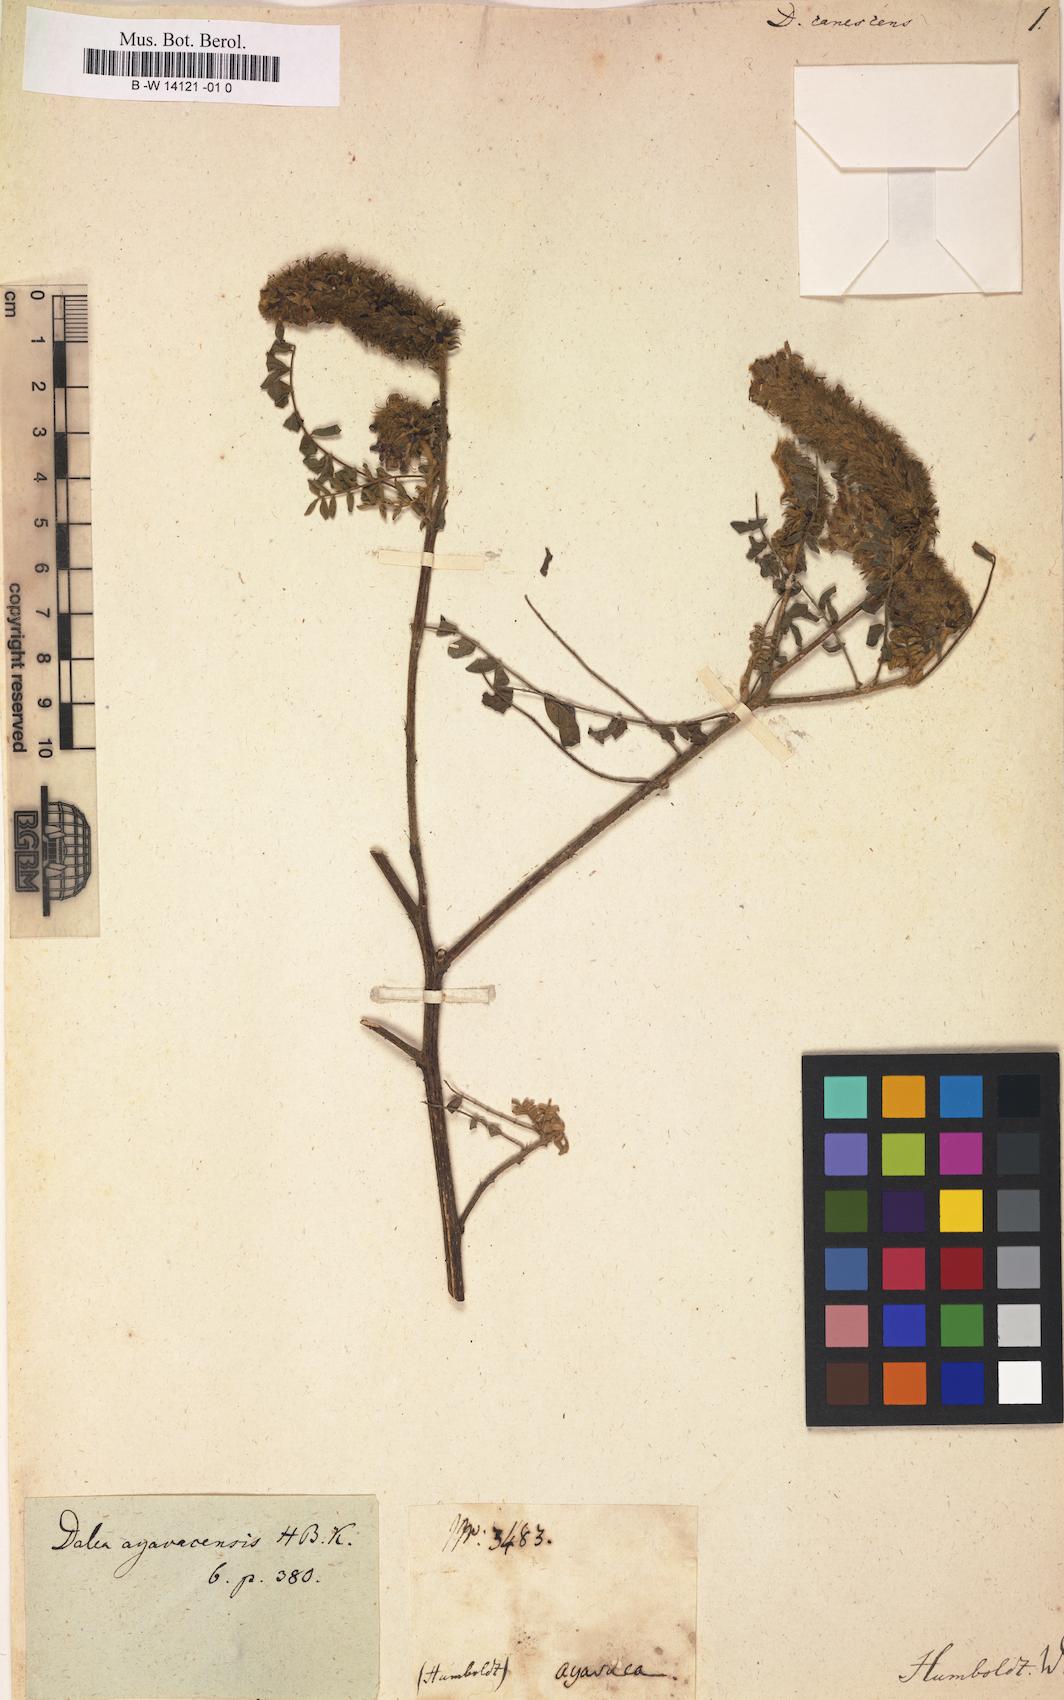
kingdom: Plantae
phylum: Tracheophyta
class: Magnoliopsida
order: Fabales
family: Fabaceae
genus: Dalea
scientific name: Dalea bicolor
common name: Silver prairie-clover
